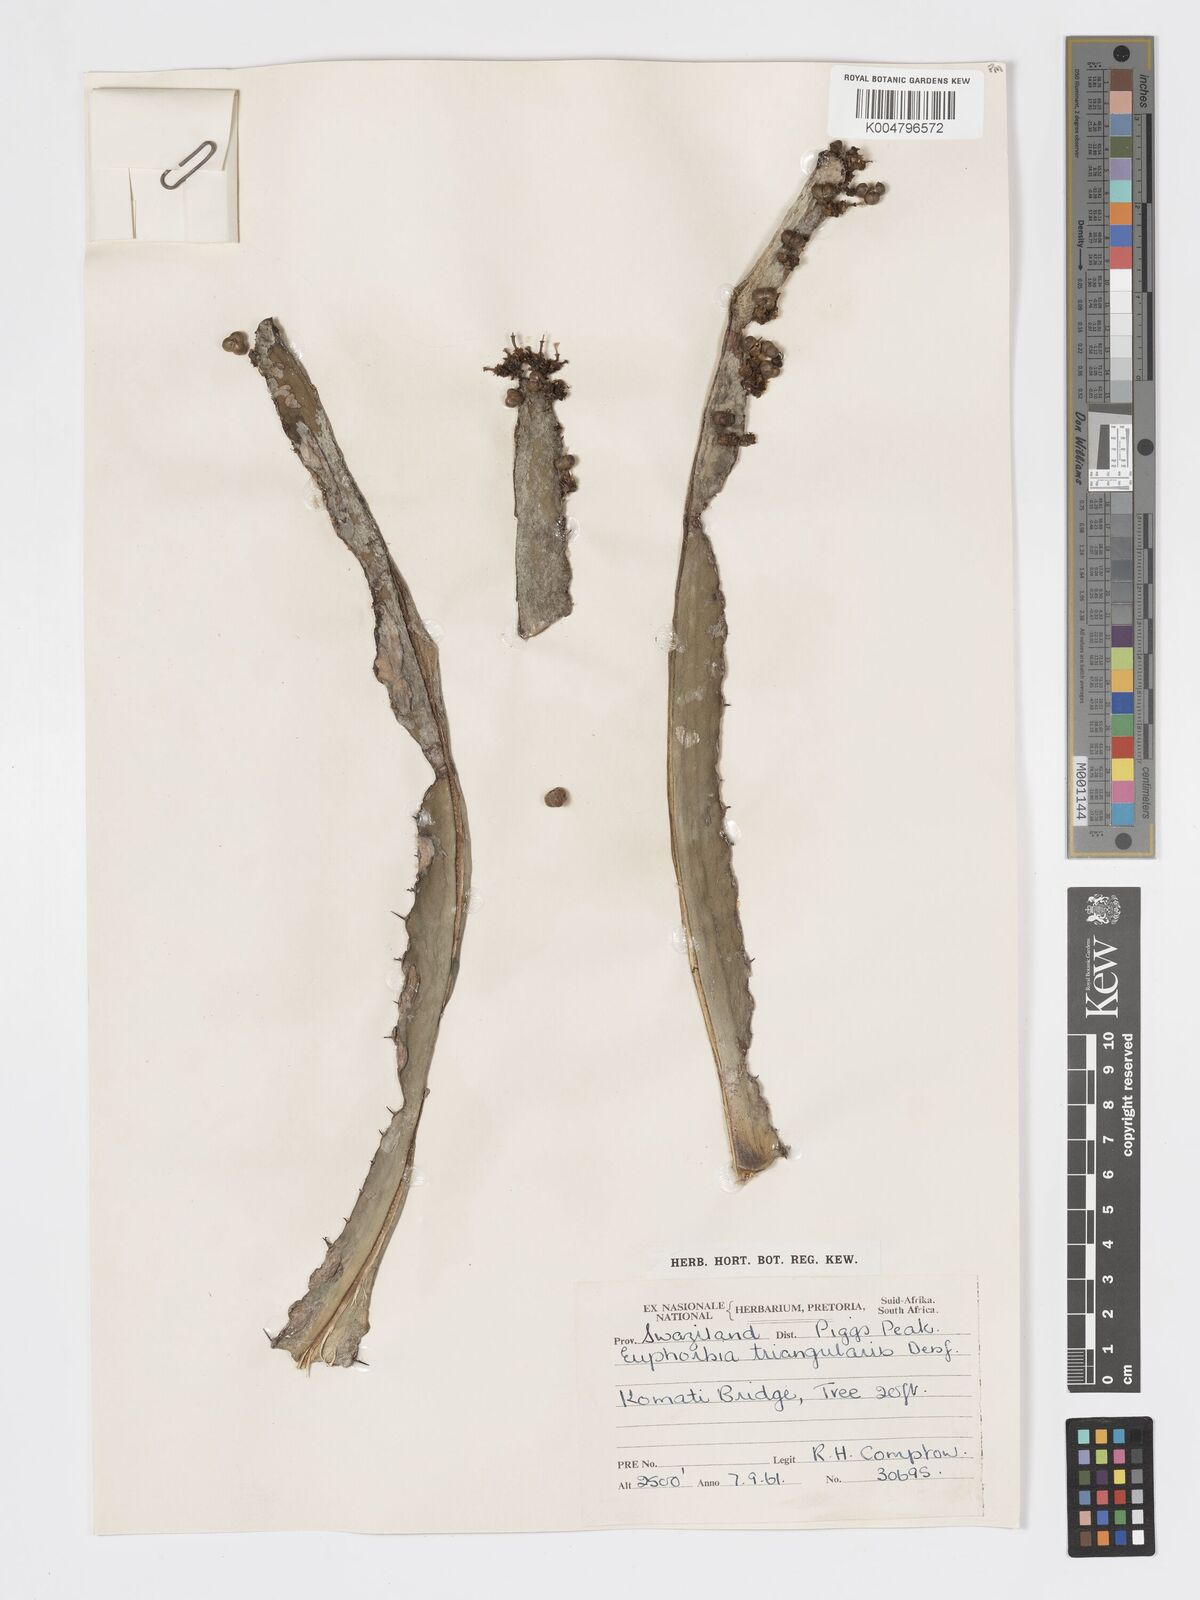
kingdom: Plantae
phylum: Tracheophyta
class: Magnoliopsida
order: Malpighiales
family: Euphorbiaceae
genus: Euphorbia
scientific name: Euphorbia triangularis
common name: Chandelier tree
